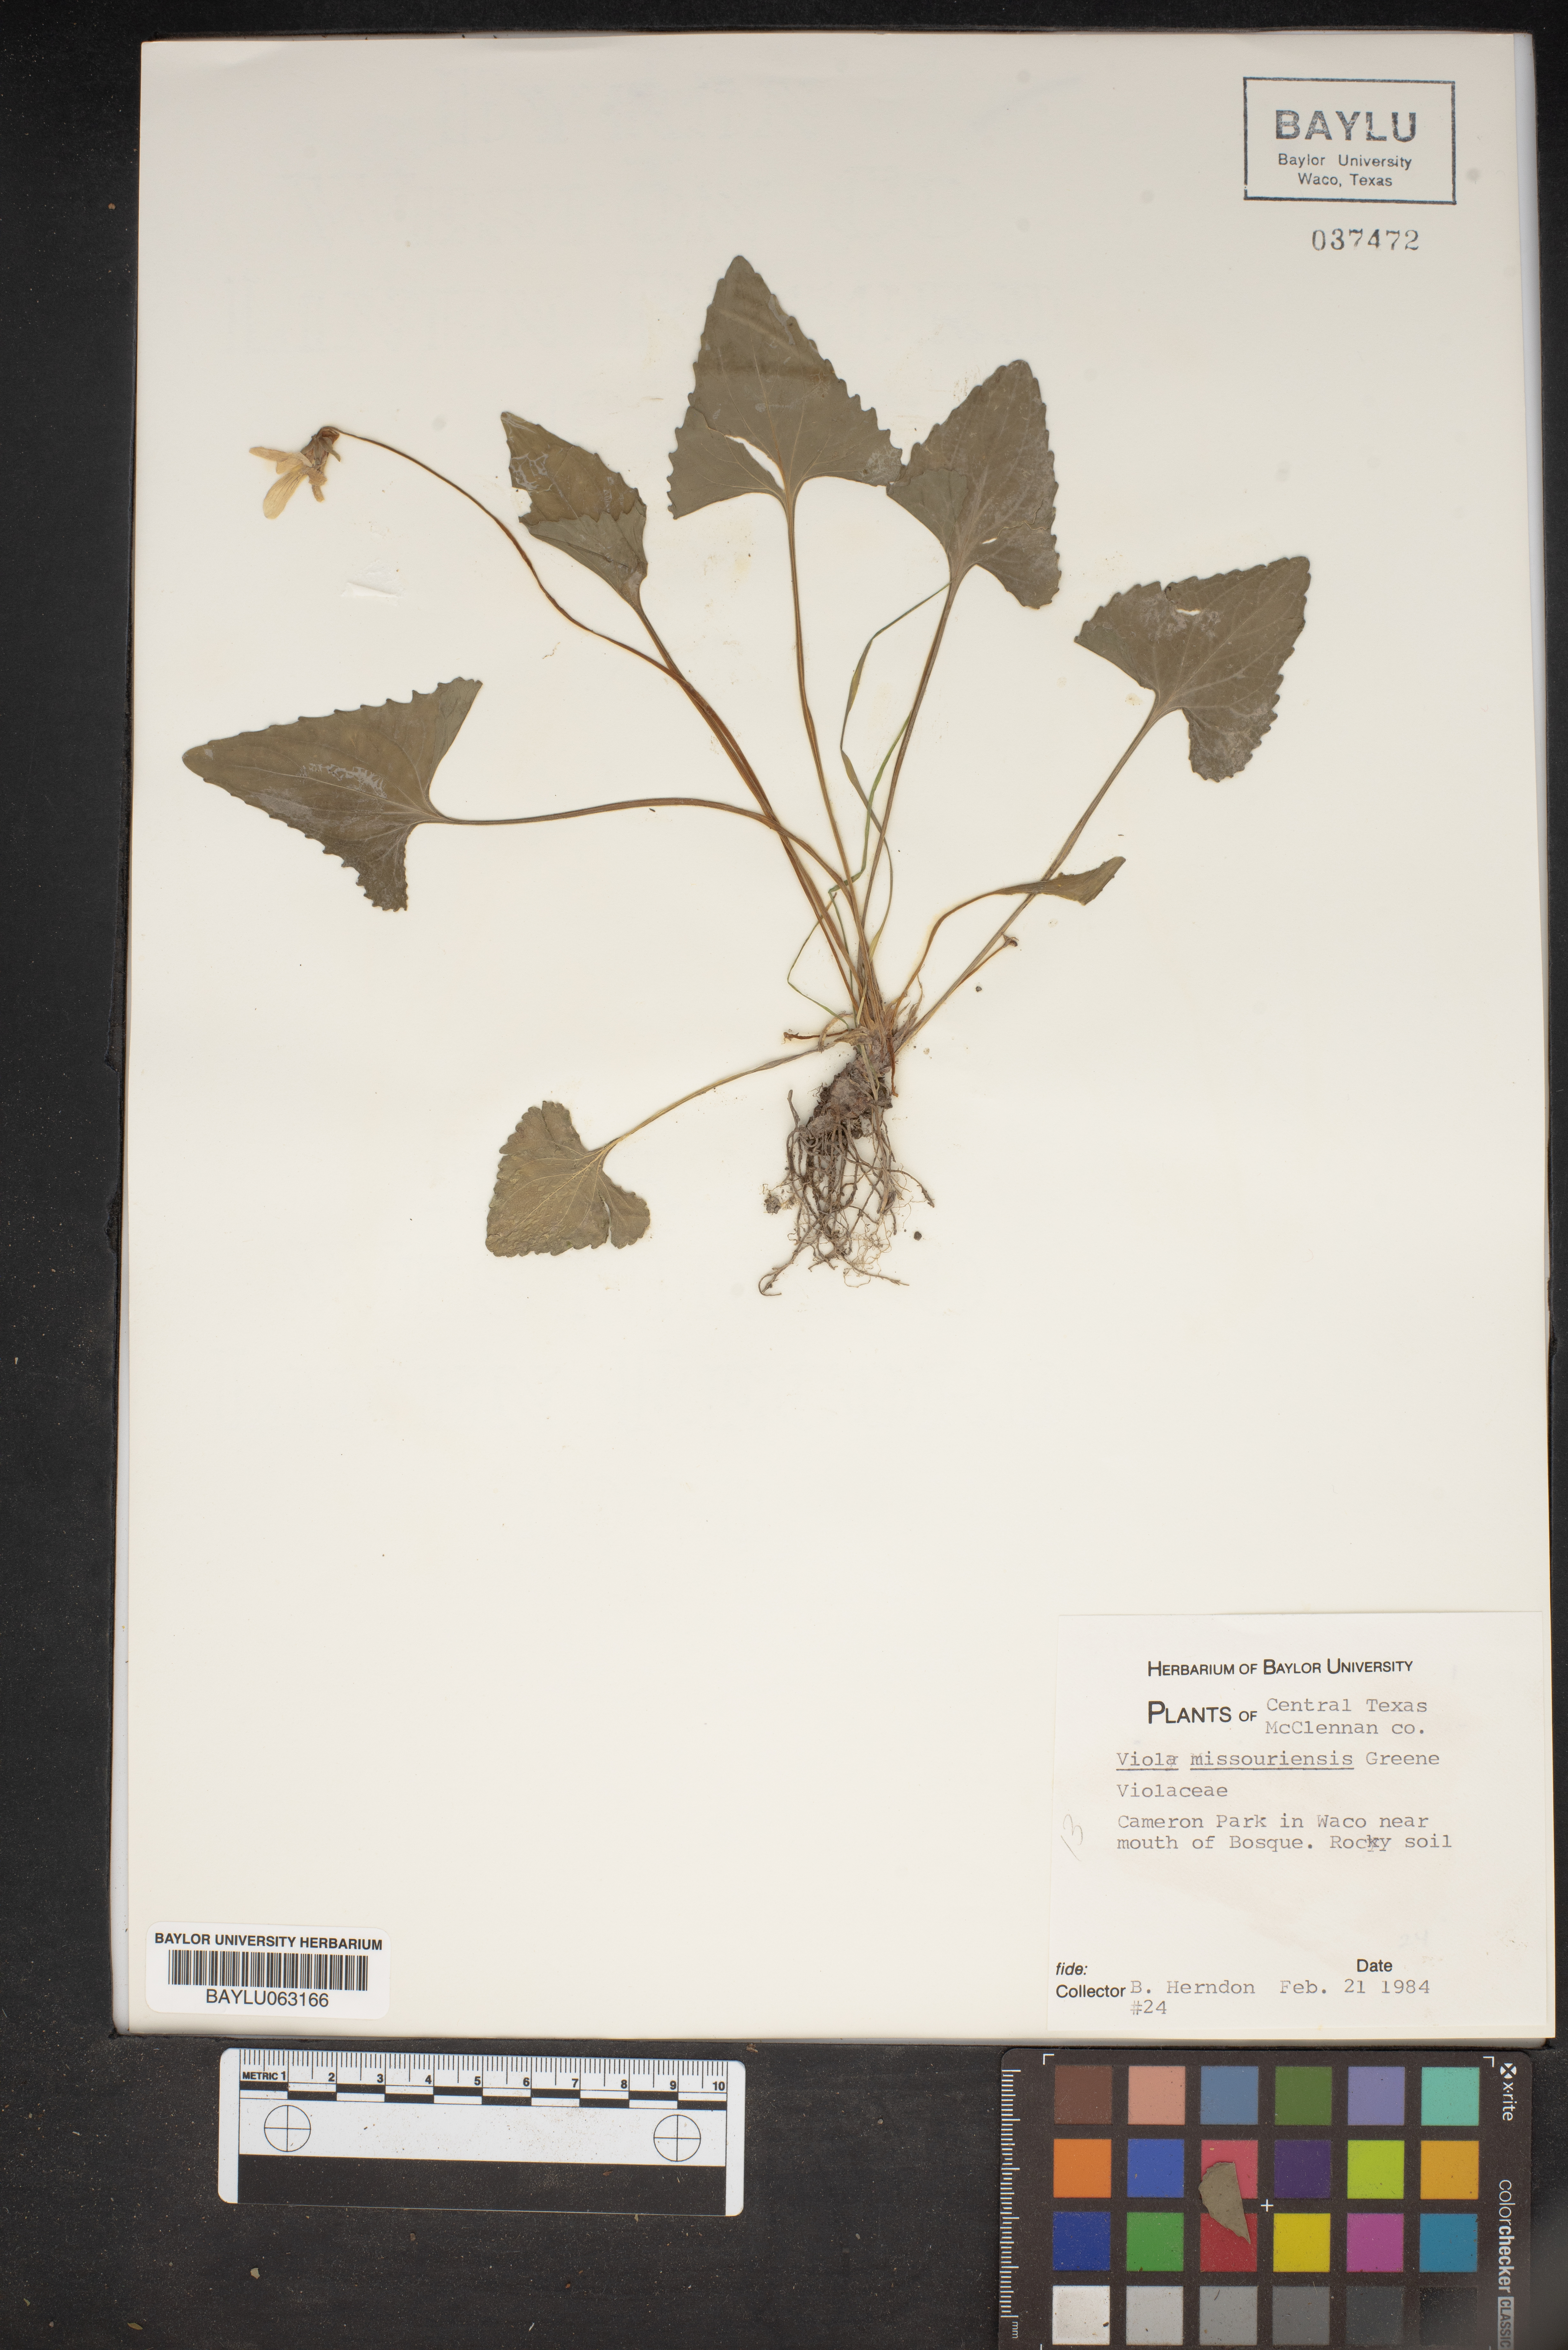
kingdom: Plantae
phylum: Tracheophyta
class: Magnoliopsida
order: Malpighiales
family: Violaceae
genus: Viola
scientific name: Viola missouriensis
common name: Missouri violet
